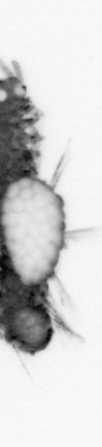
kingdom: Animalia
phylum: Annelida
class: Polychaeta
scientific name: Polychaeta
